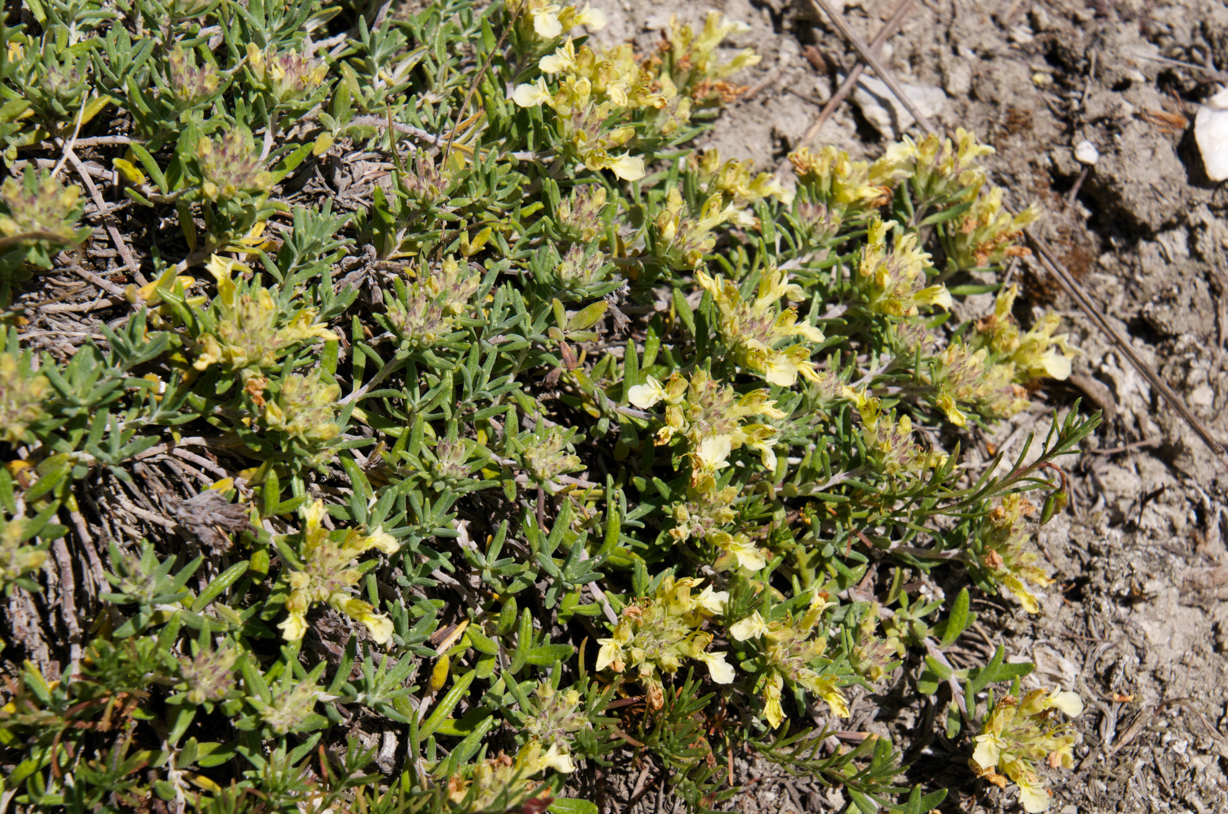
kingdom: Plantae
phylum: Tracheophyta
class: Magnoliopsida
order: Lamiales
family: Lamiaceae
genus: Teucrium
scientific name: Teucrium montanum
